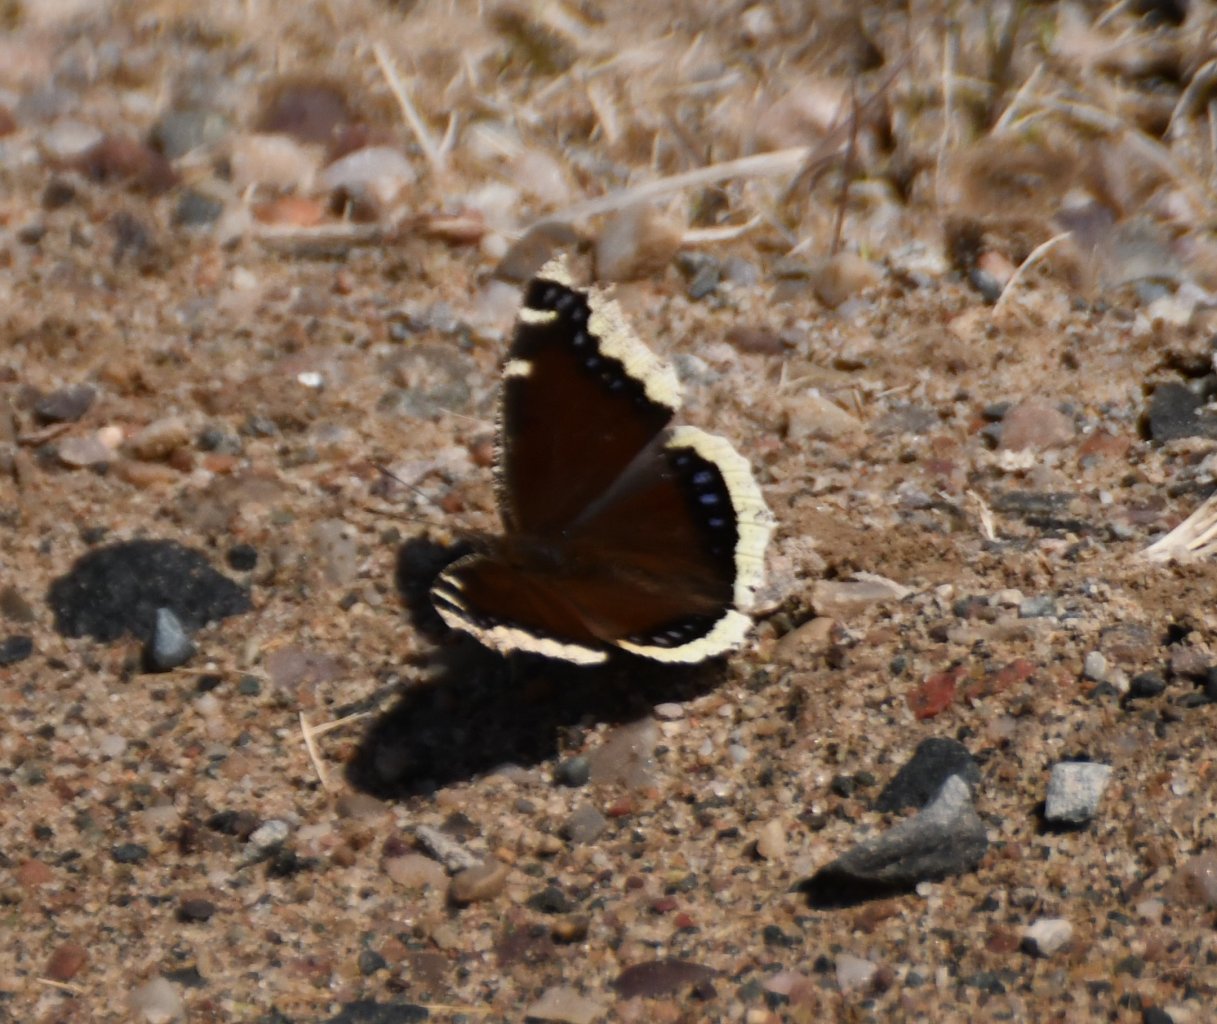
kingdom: Animalia
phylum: Arthropoda
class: Insecta
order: Lepidoptera
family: Nymphalidae
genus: Nymphalis
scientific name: Nymphalis antiopa
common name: Mourning Cloak
